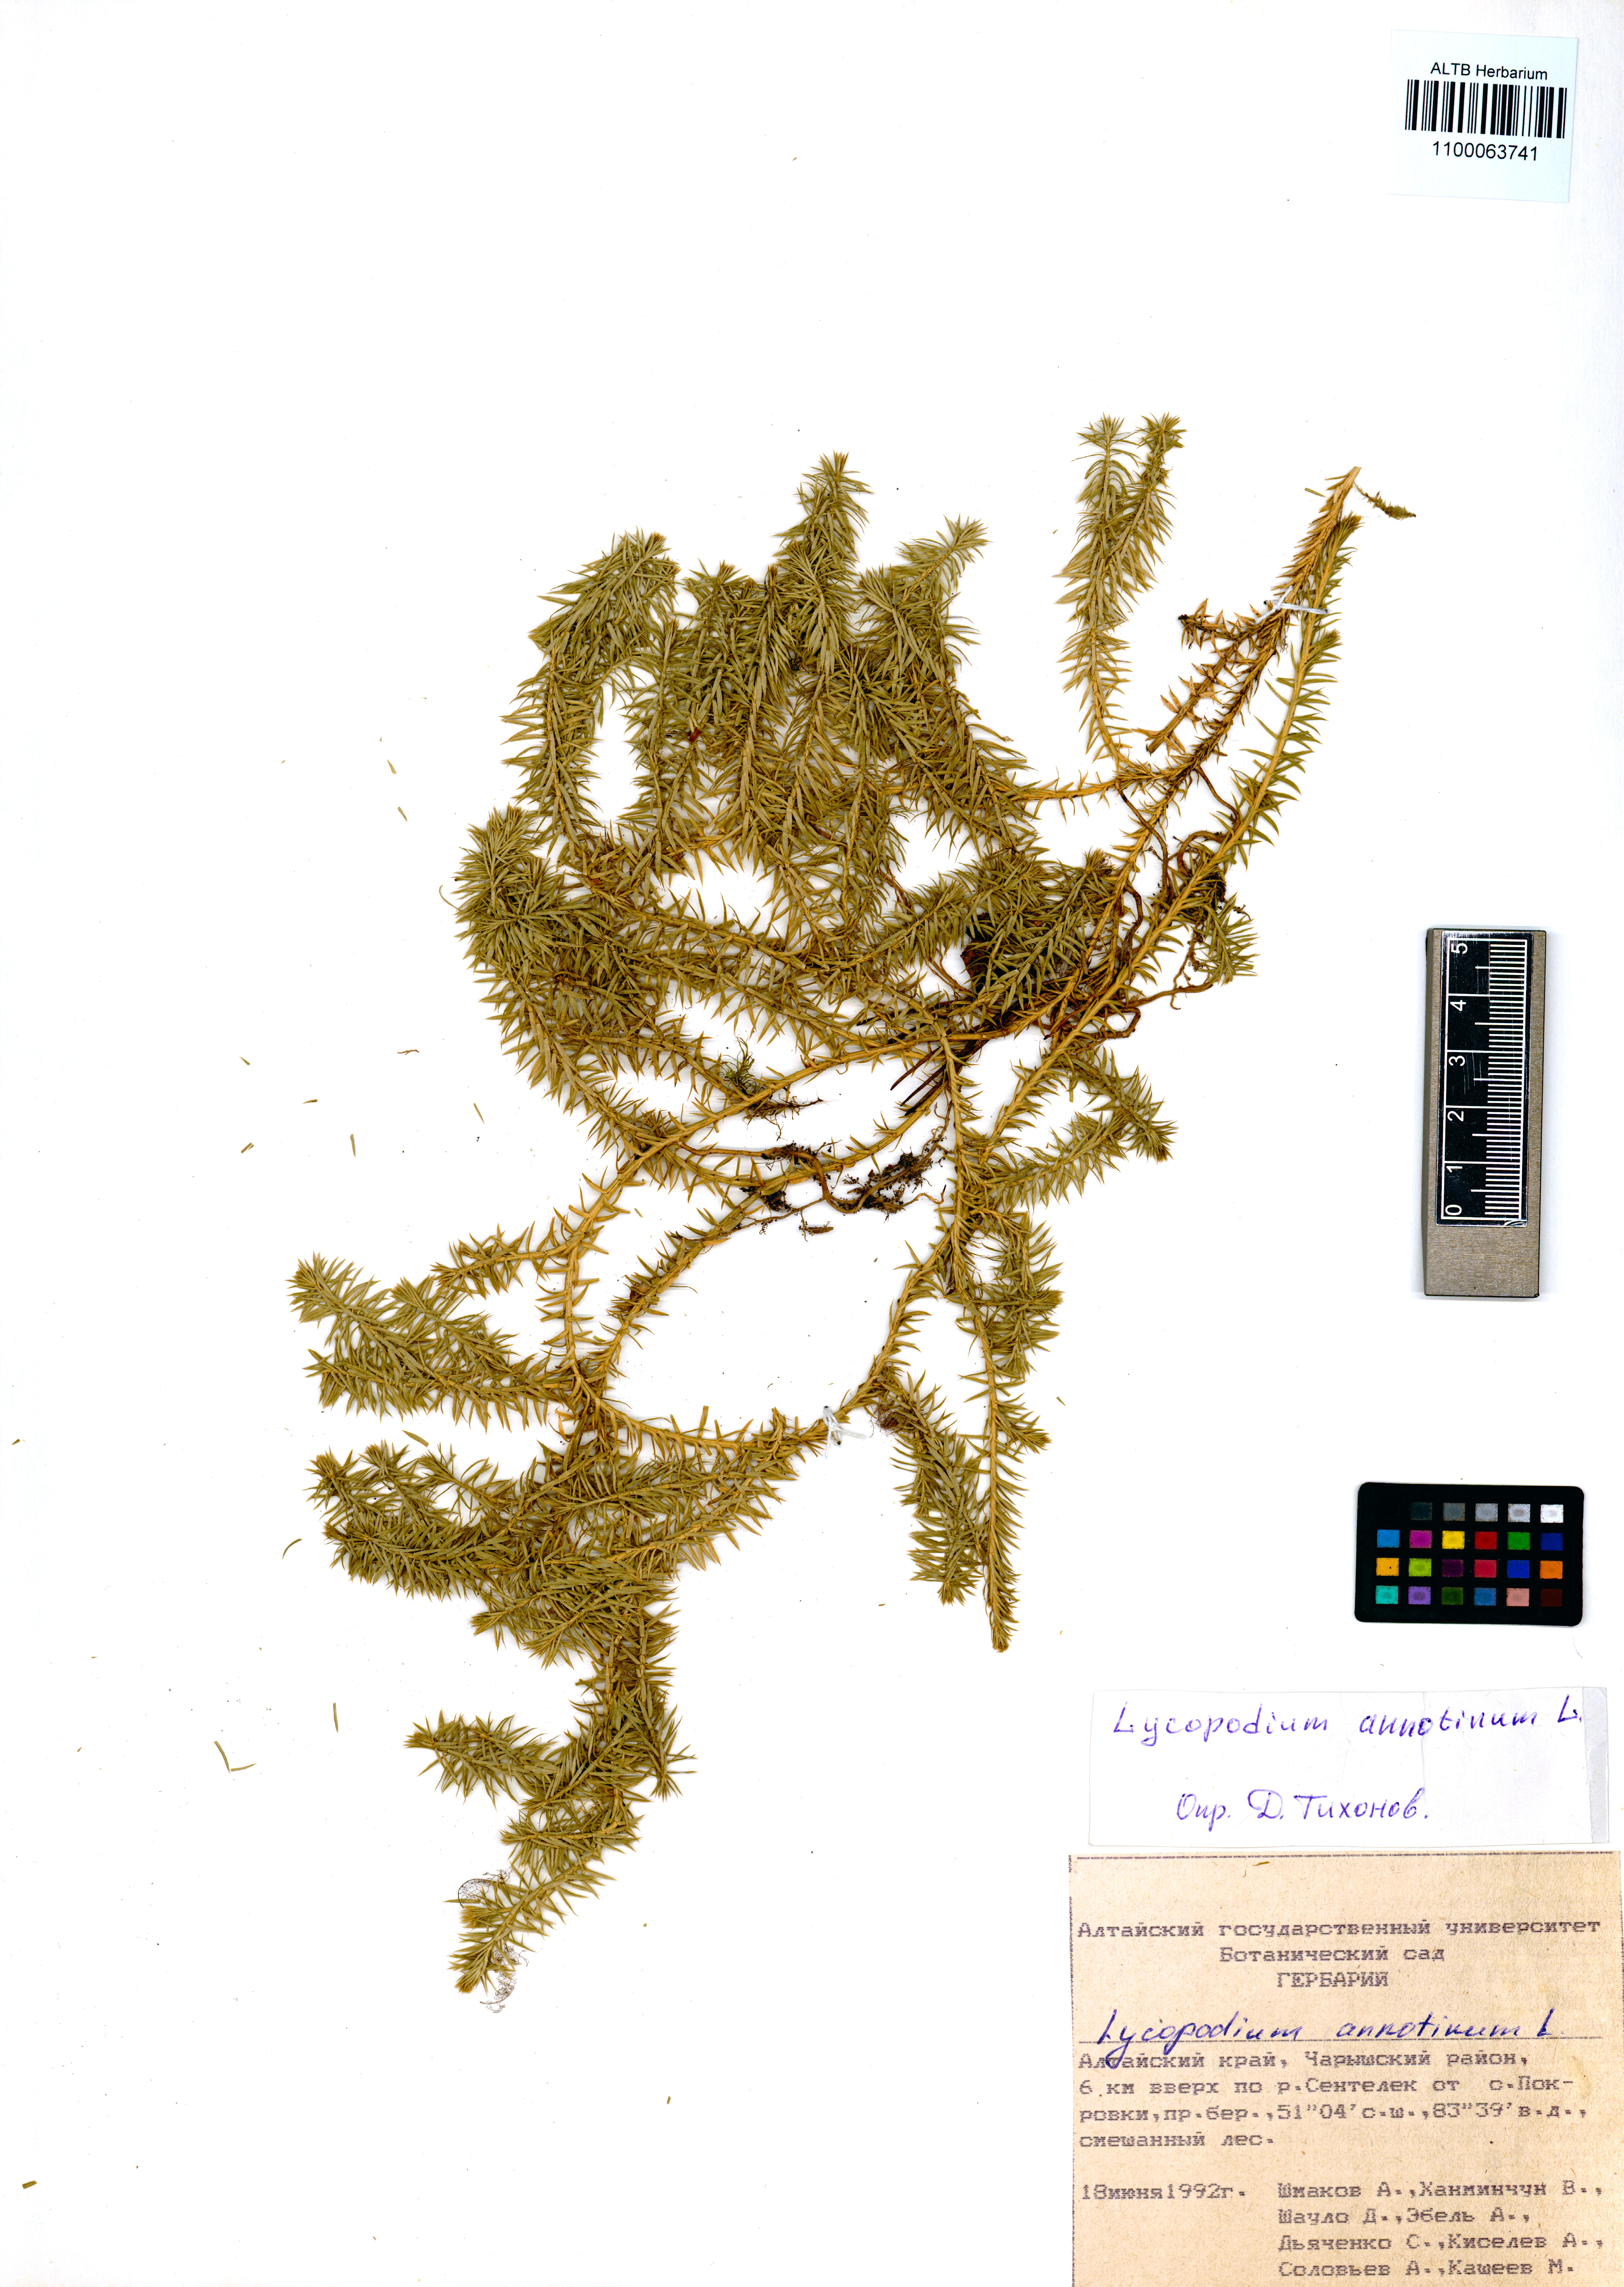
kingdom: Plantae
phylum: Tracheophyta
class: Lycopodiopsida
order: Lycopodiales
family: Lycopodiaceae
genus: Spinulum
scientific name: Spinulum annotinum
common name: Interrupted club-moss
